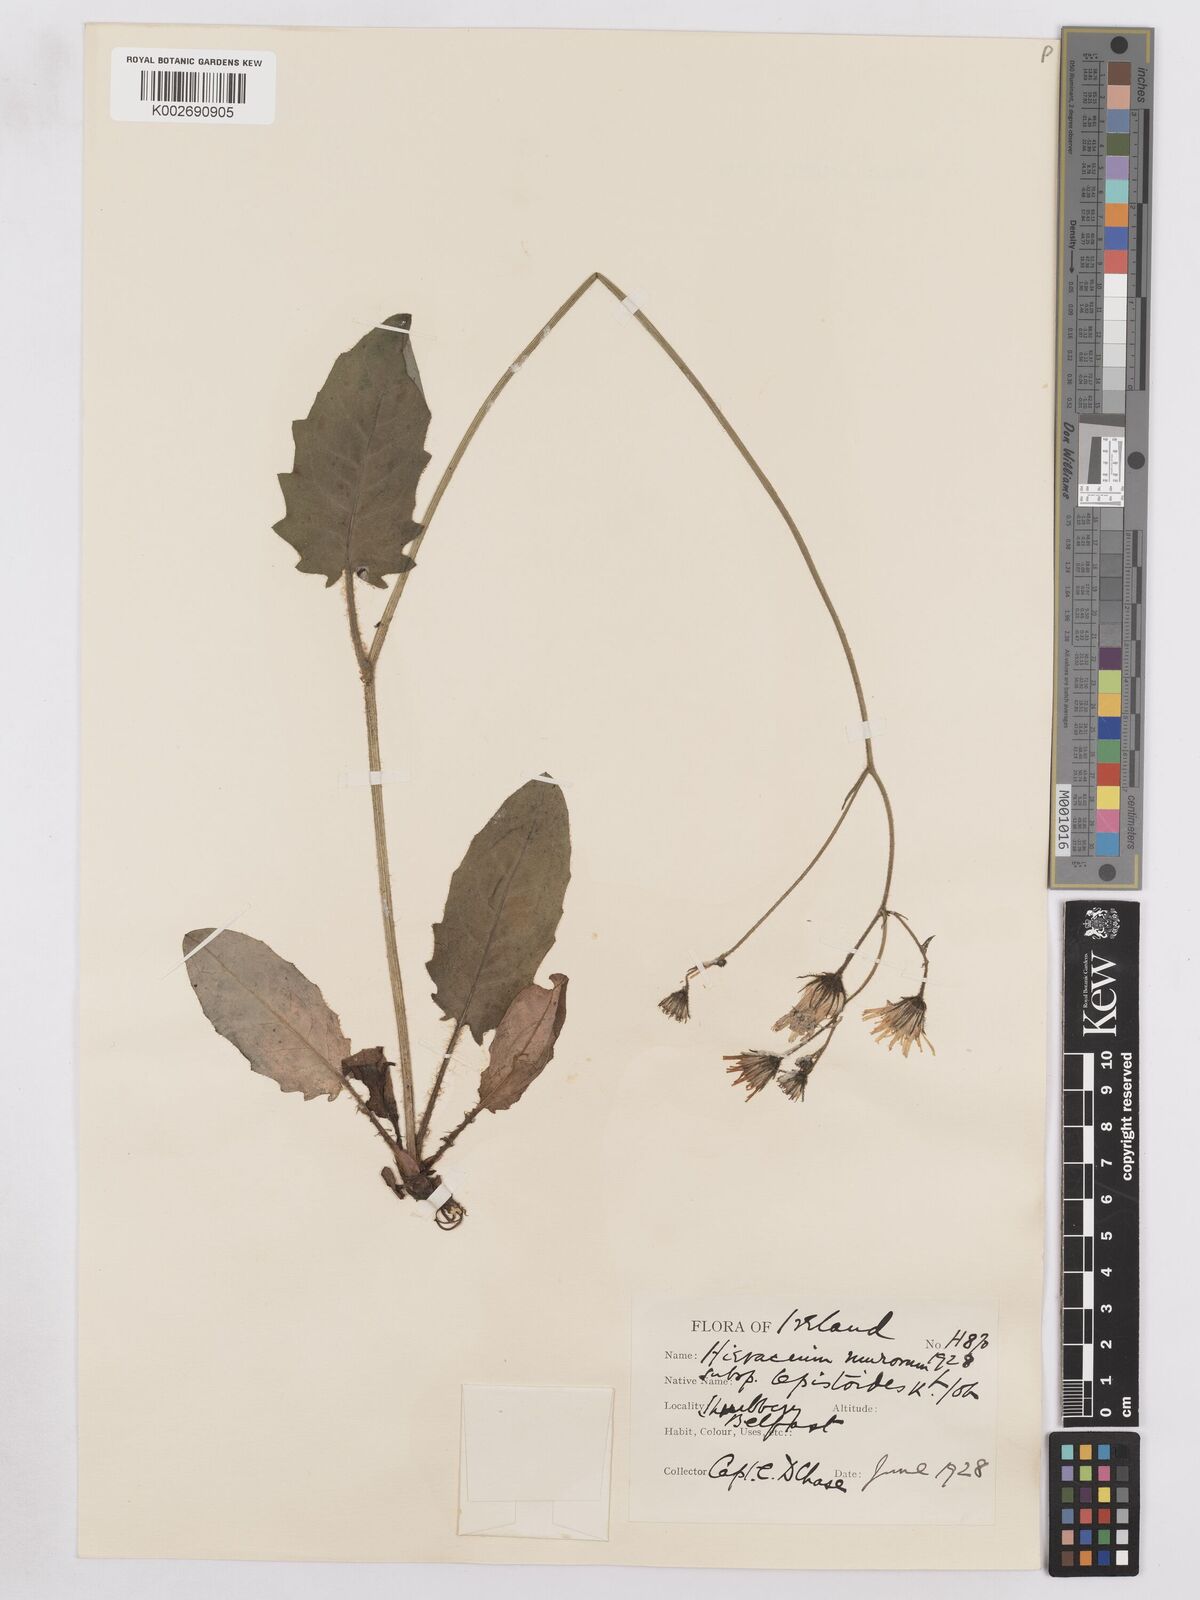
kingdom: Plantae
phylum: Tracheophyta
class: Magnoliopsida
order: Asterales
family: Asteraceae
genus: Hieracium
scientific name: Hieracium murorum
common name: Wall hawkweed
